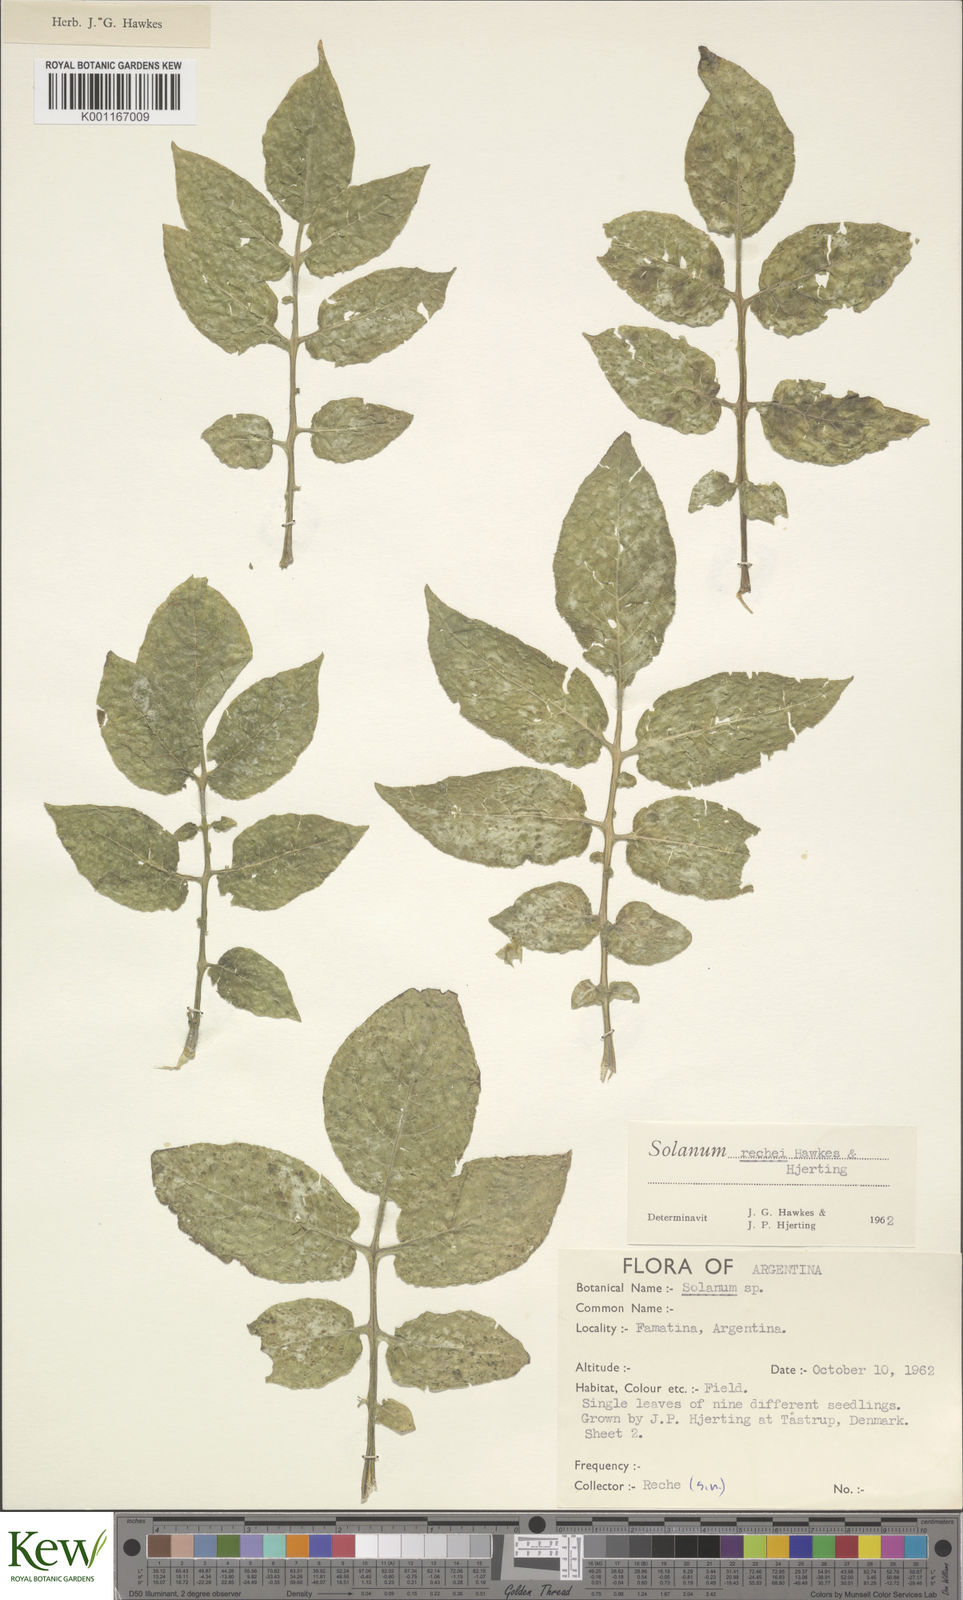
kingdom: Plantae
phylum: Tracheophyta
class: Magnoliopsida
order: Solanales
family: Solanaceae
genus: Solanum
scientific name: Solanum rechei
